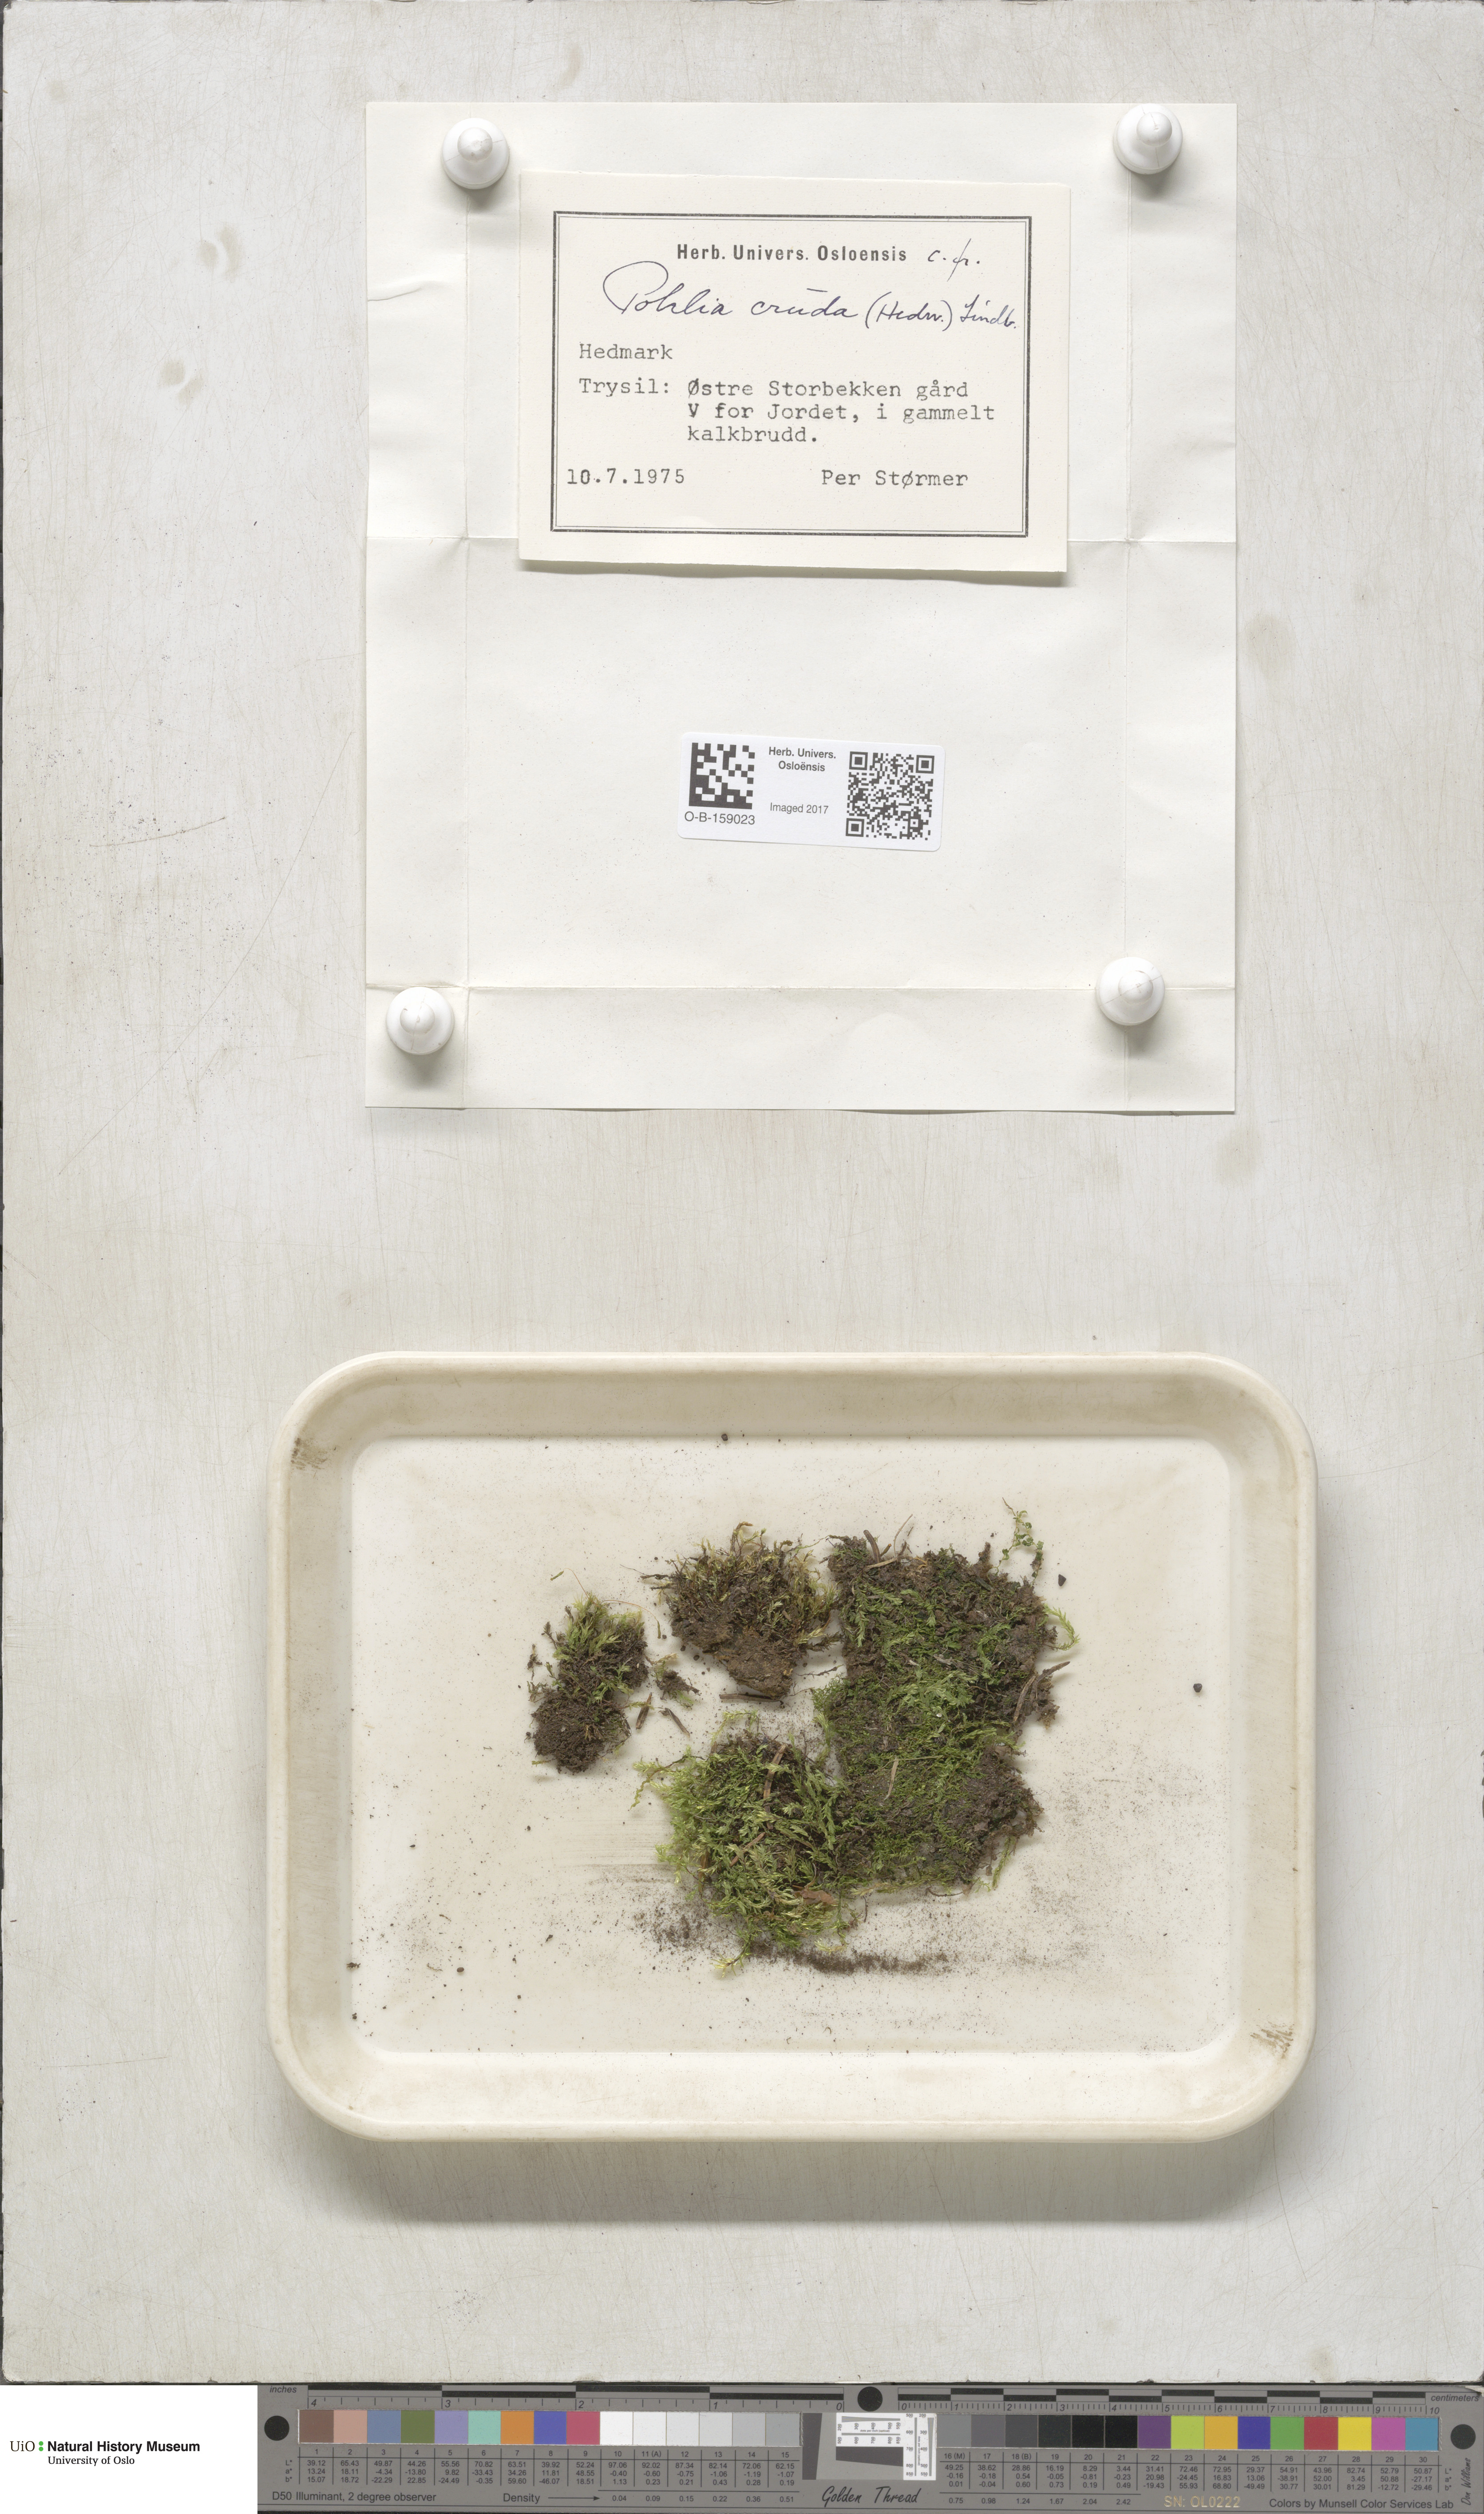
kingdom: Plantae
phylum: Bryophyta
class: Bryopsida
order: Bryales
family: Mniaceae
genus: Pohlia
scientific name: Pohlia cruda
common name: Opal nodding moss
